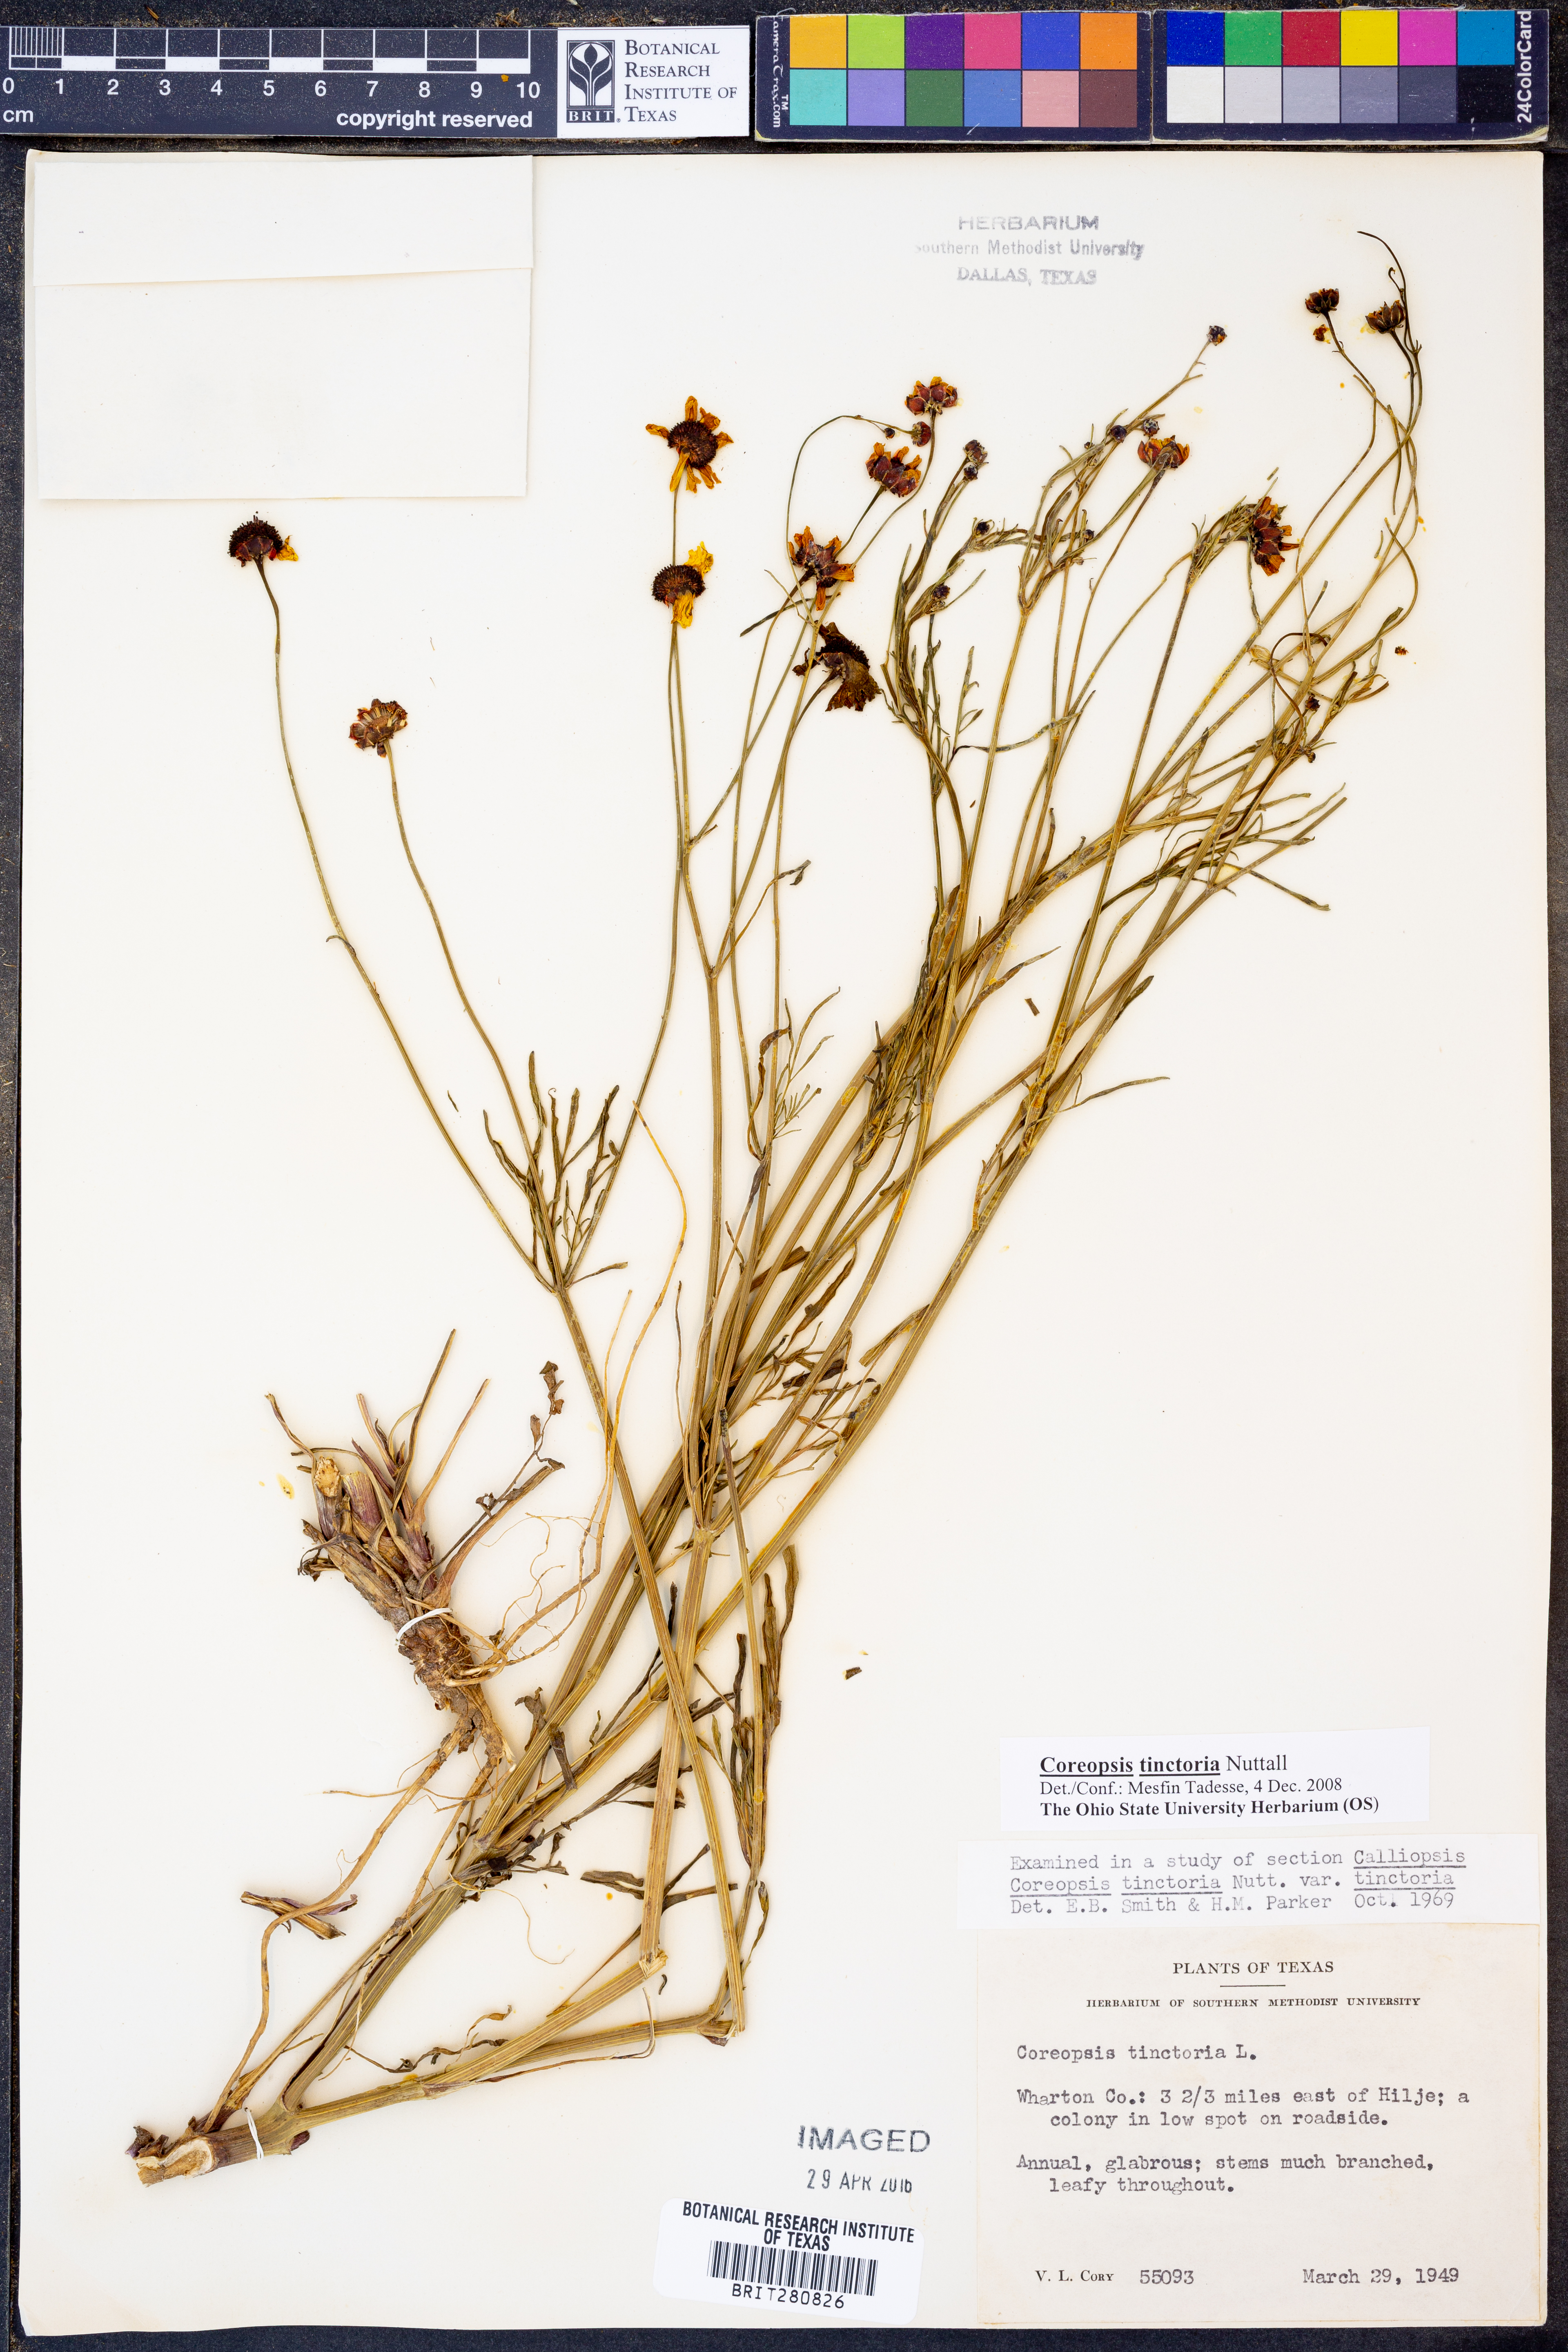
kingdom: Plantae
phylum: Tracheophyta
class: Magnoliopsida
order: Asterales
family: Asteraceae
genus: Coreopsis
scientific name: Coreopsis tinctoria
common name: Garden tickseed
